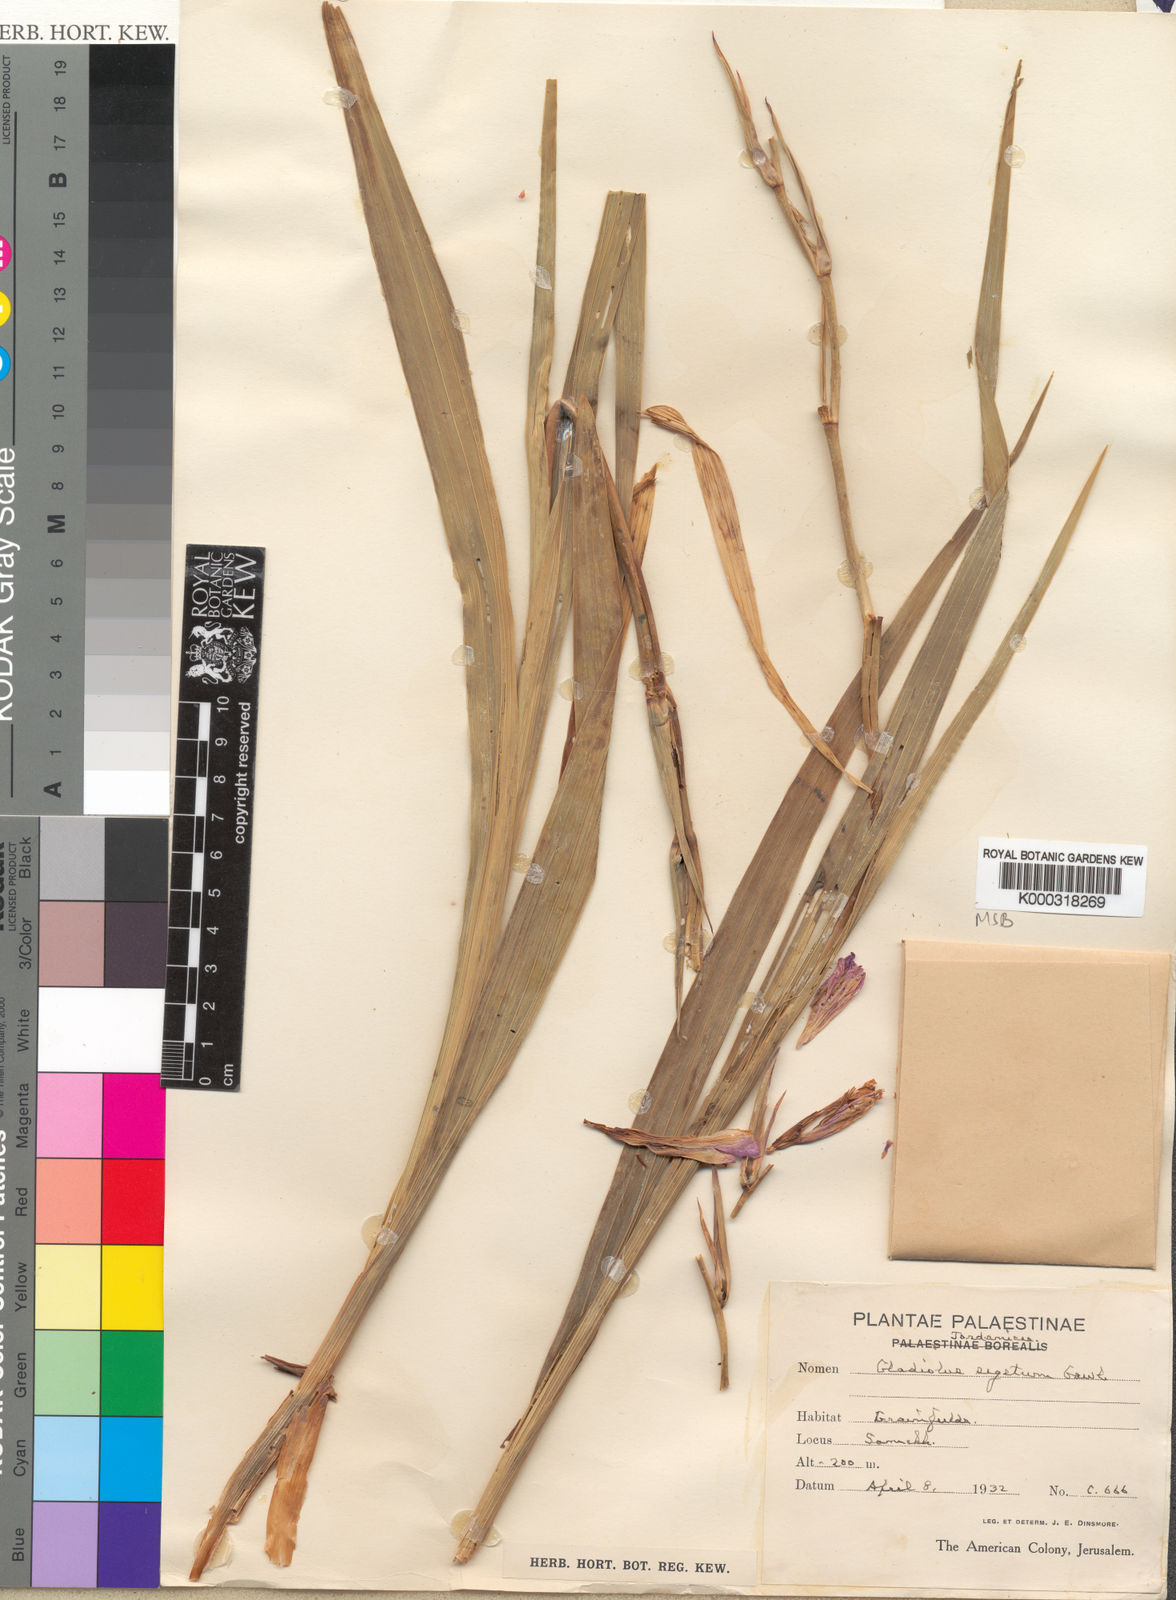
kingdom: Plantae
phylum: Tracheophyta
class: Liliopsida
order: Asparagales
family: Iridaceae
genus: Gladiolus
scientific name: Gladiolus italicus
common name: Field gladiolus
